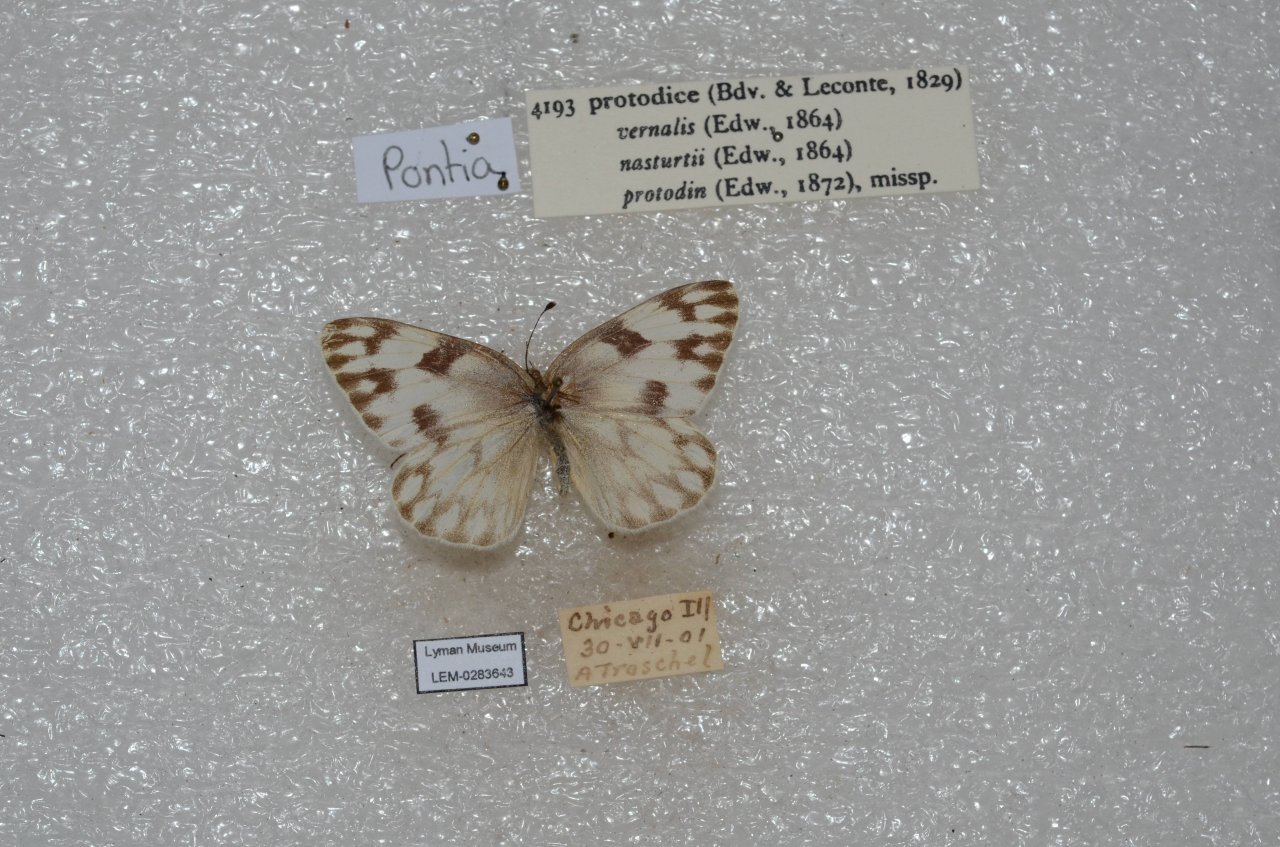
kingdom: Animalia
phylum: Arthropoda
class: Insecta
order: Lepidoptera
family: Pieridae
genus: Pontia
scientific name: Pontia protodice
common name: Checkered White
